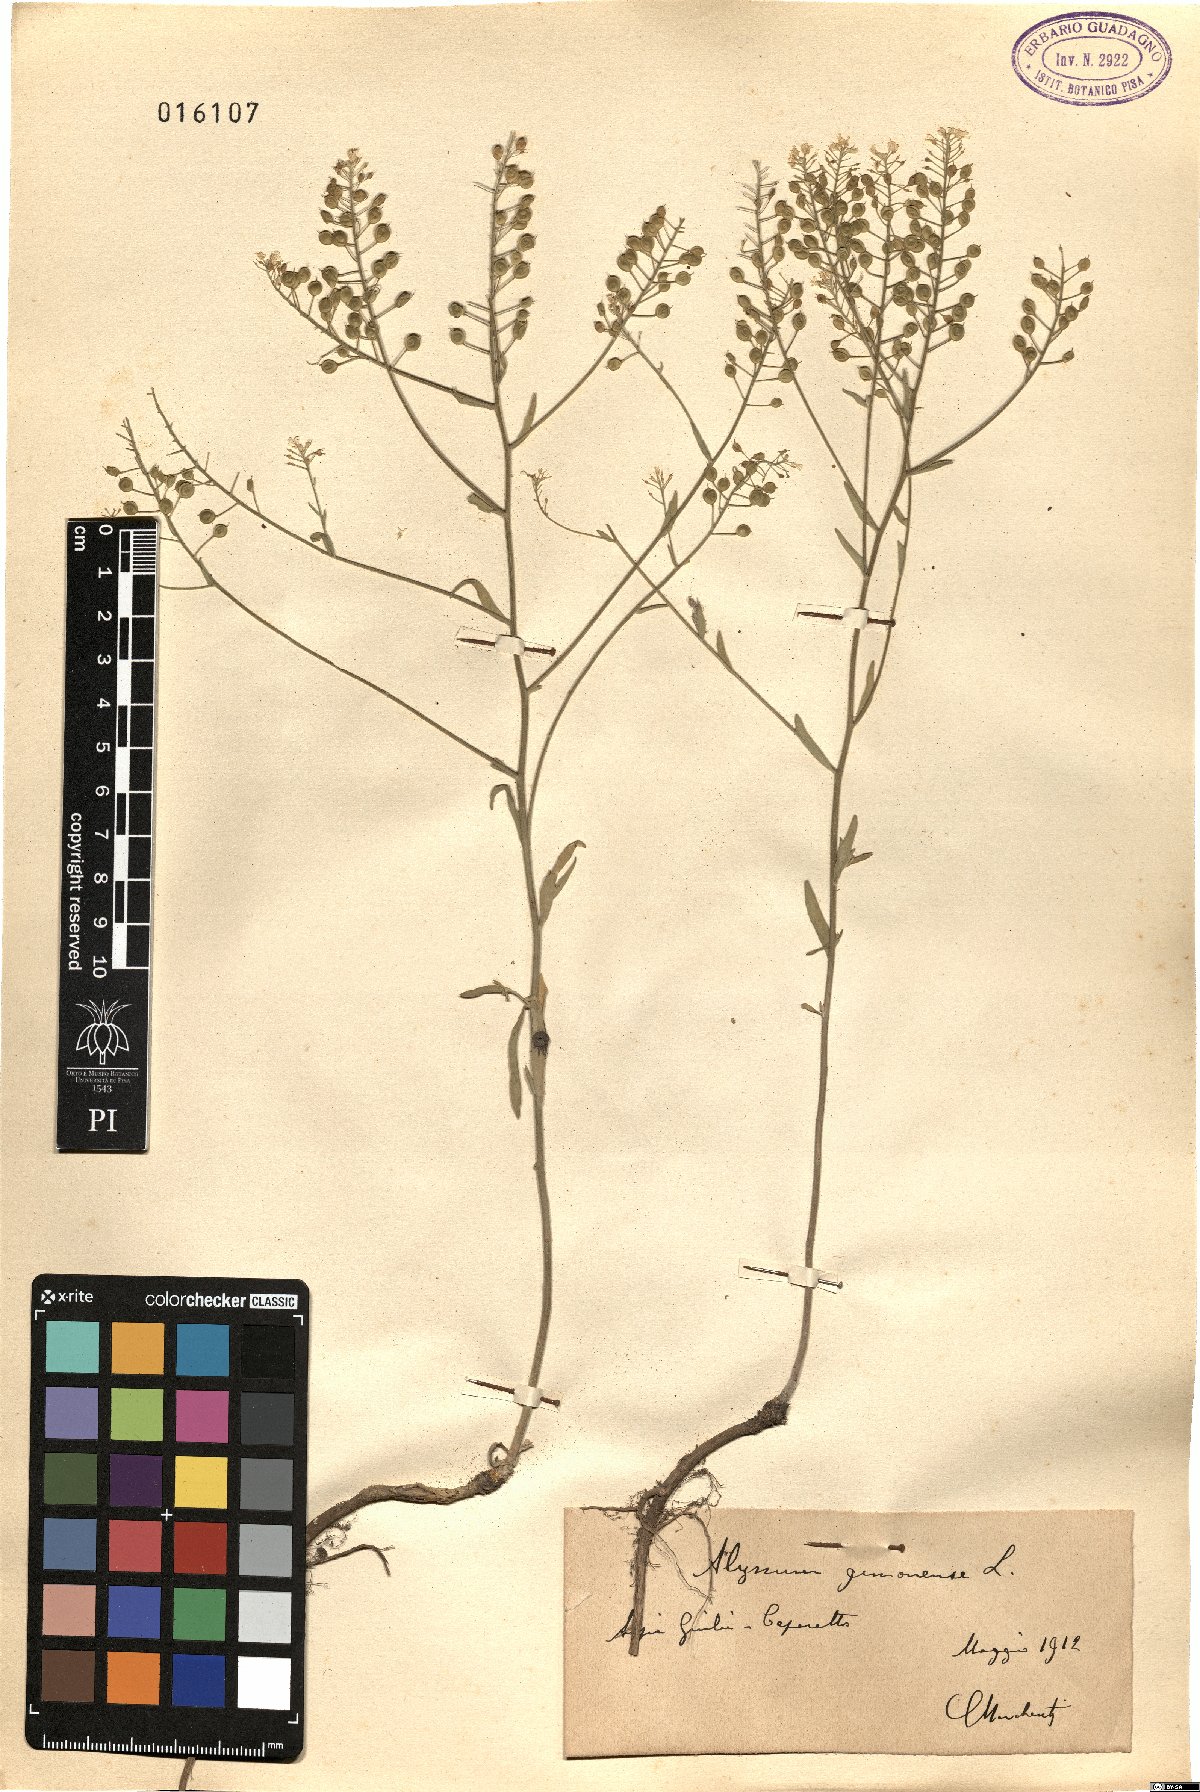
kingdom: Plantae
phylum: Tracheophyta
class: Magnoliopsida
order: Brassicales
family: Brassicaceae
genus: Aurinia
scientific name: Aurinia petraea
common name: Goldentuft
